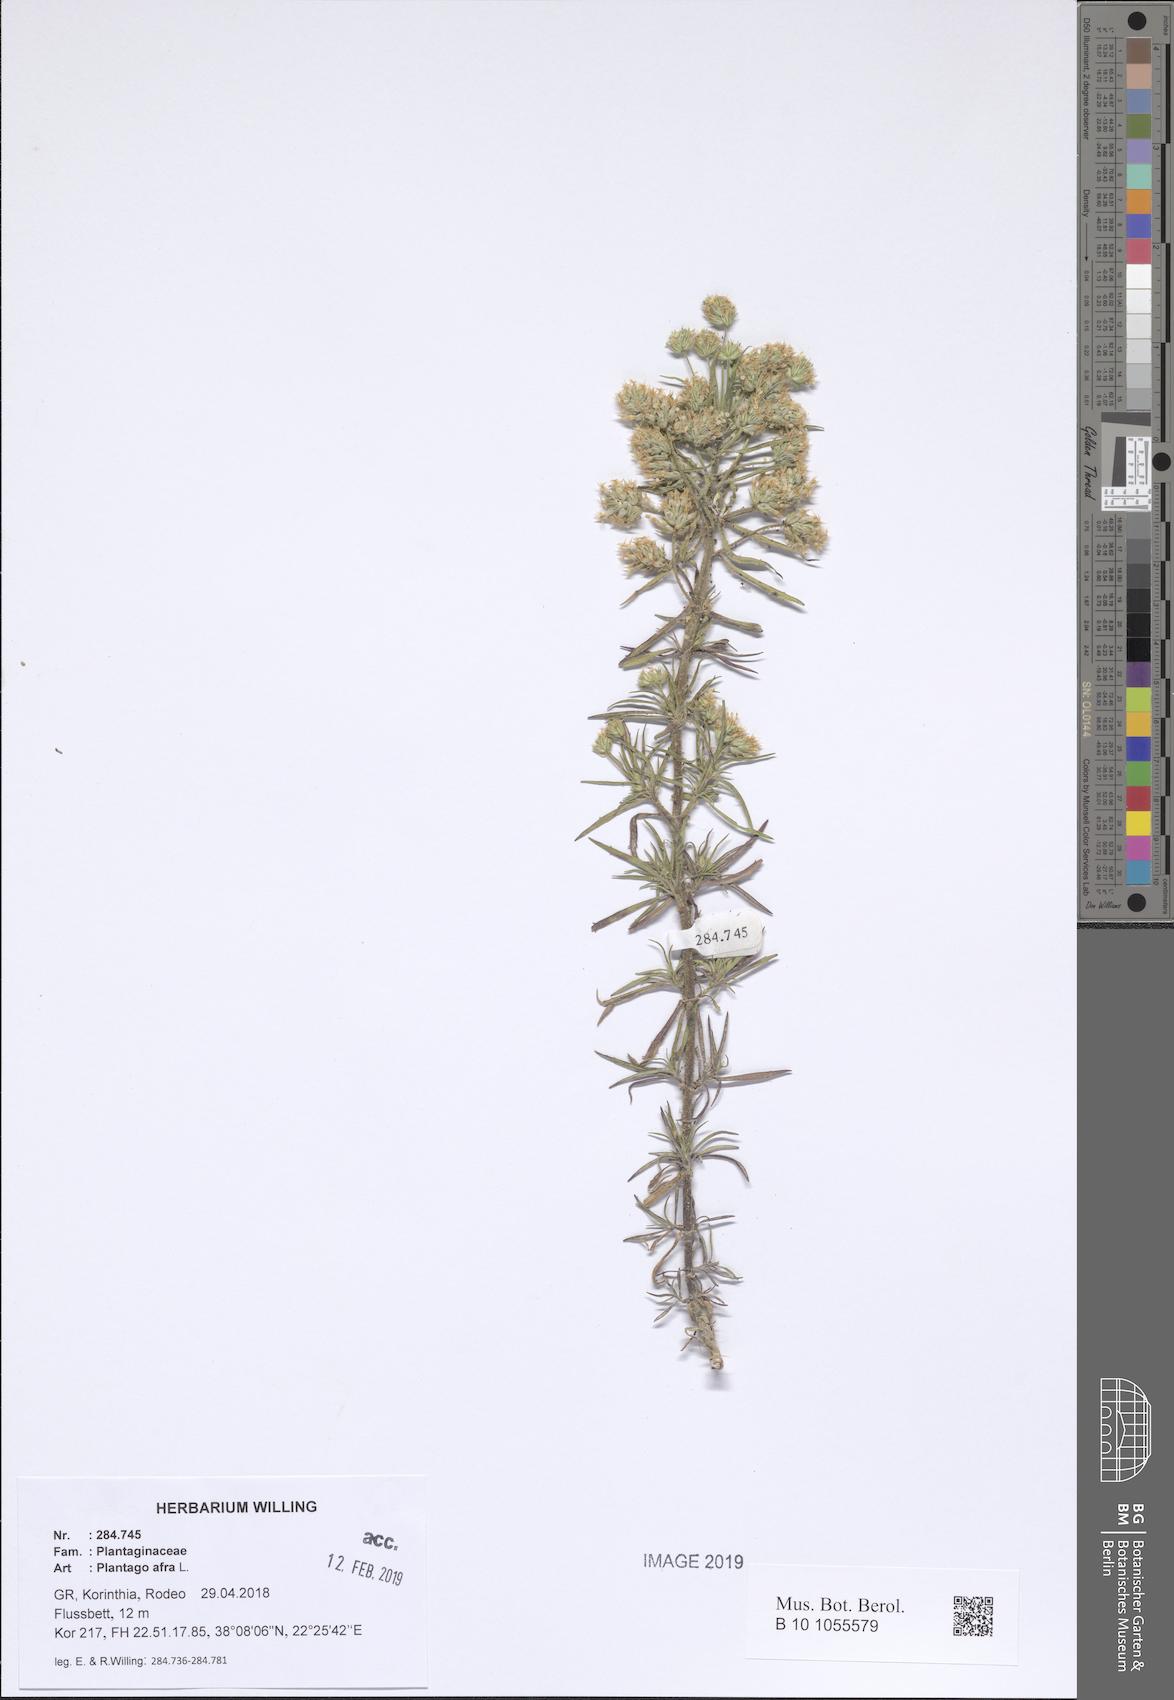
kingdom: Plantae
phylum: Tracheophyta
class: Magnoliopsida
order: Lamiales
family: Plantaginaceae
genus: Plantago
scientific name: Plantago afra
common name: Glandular plantain
